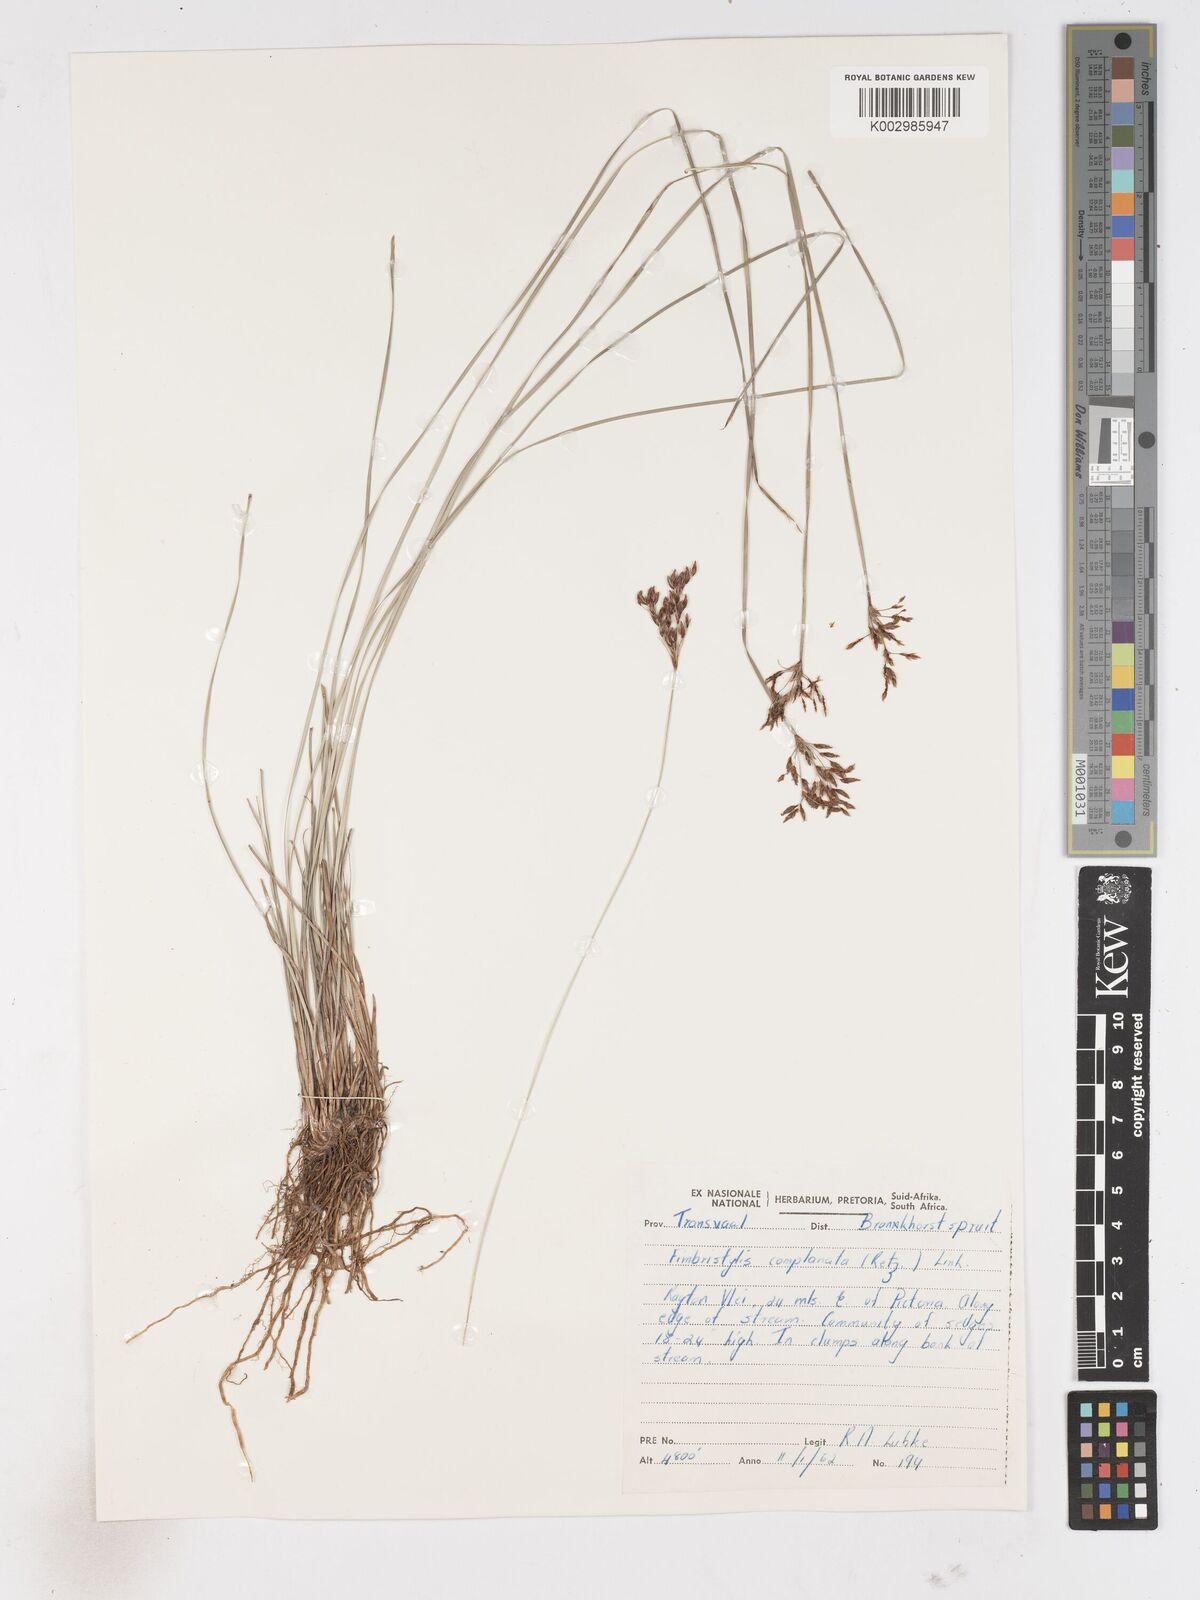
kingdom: Plantae
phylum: Tracheophyta
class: Liliopsida
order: Poales
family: Cyperaceae
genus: Fimbristylis
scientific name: Fimbristylis complanata
